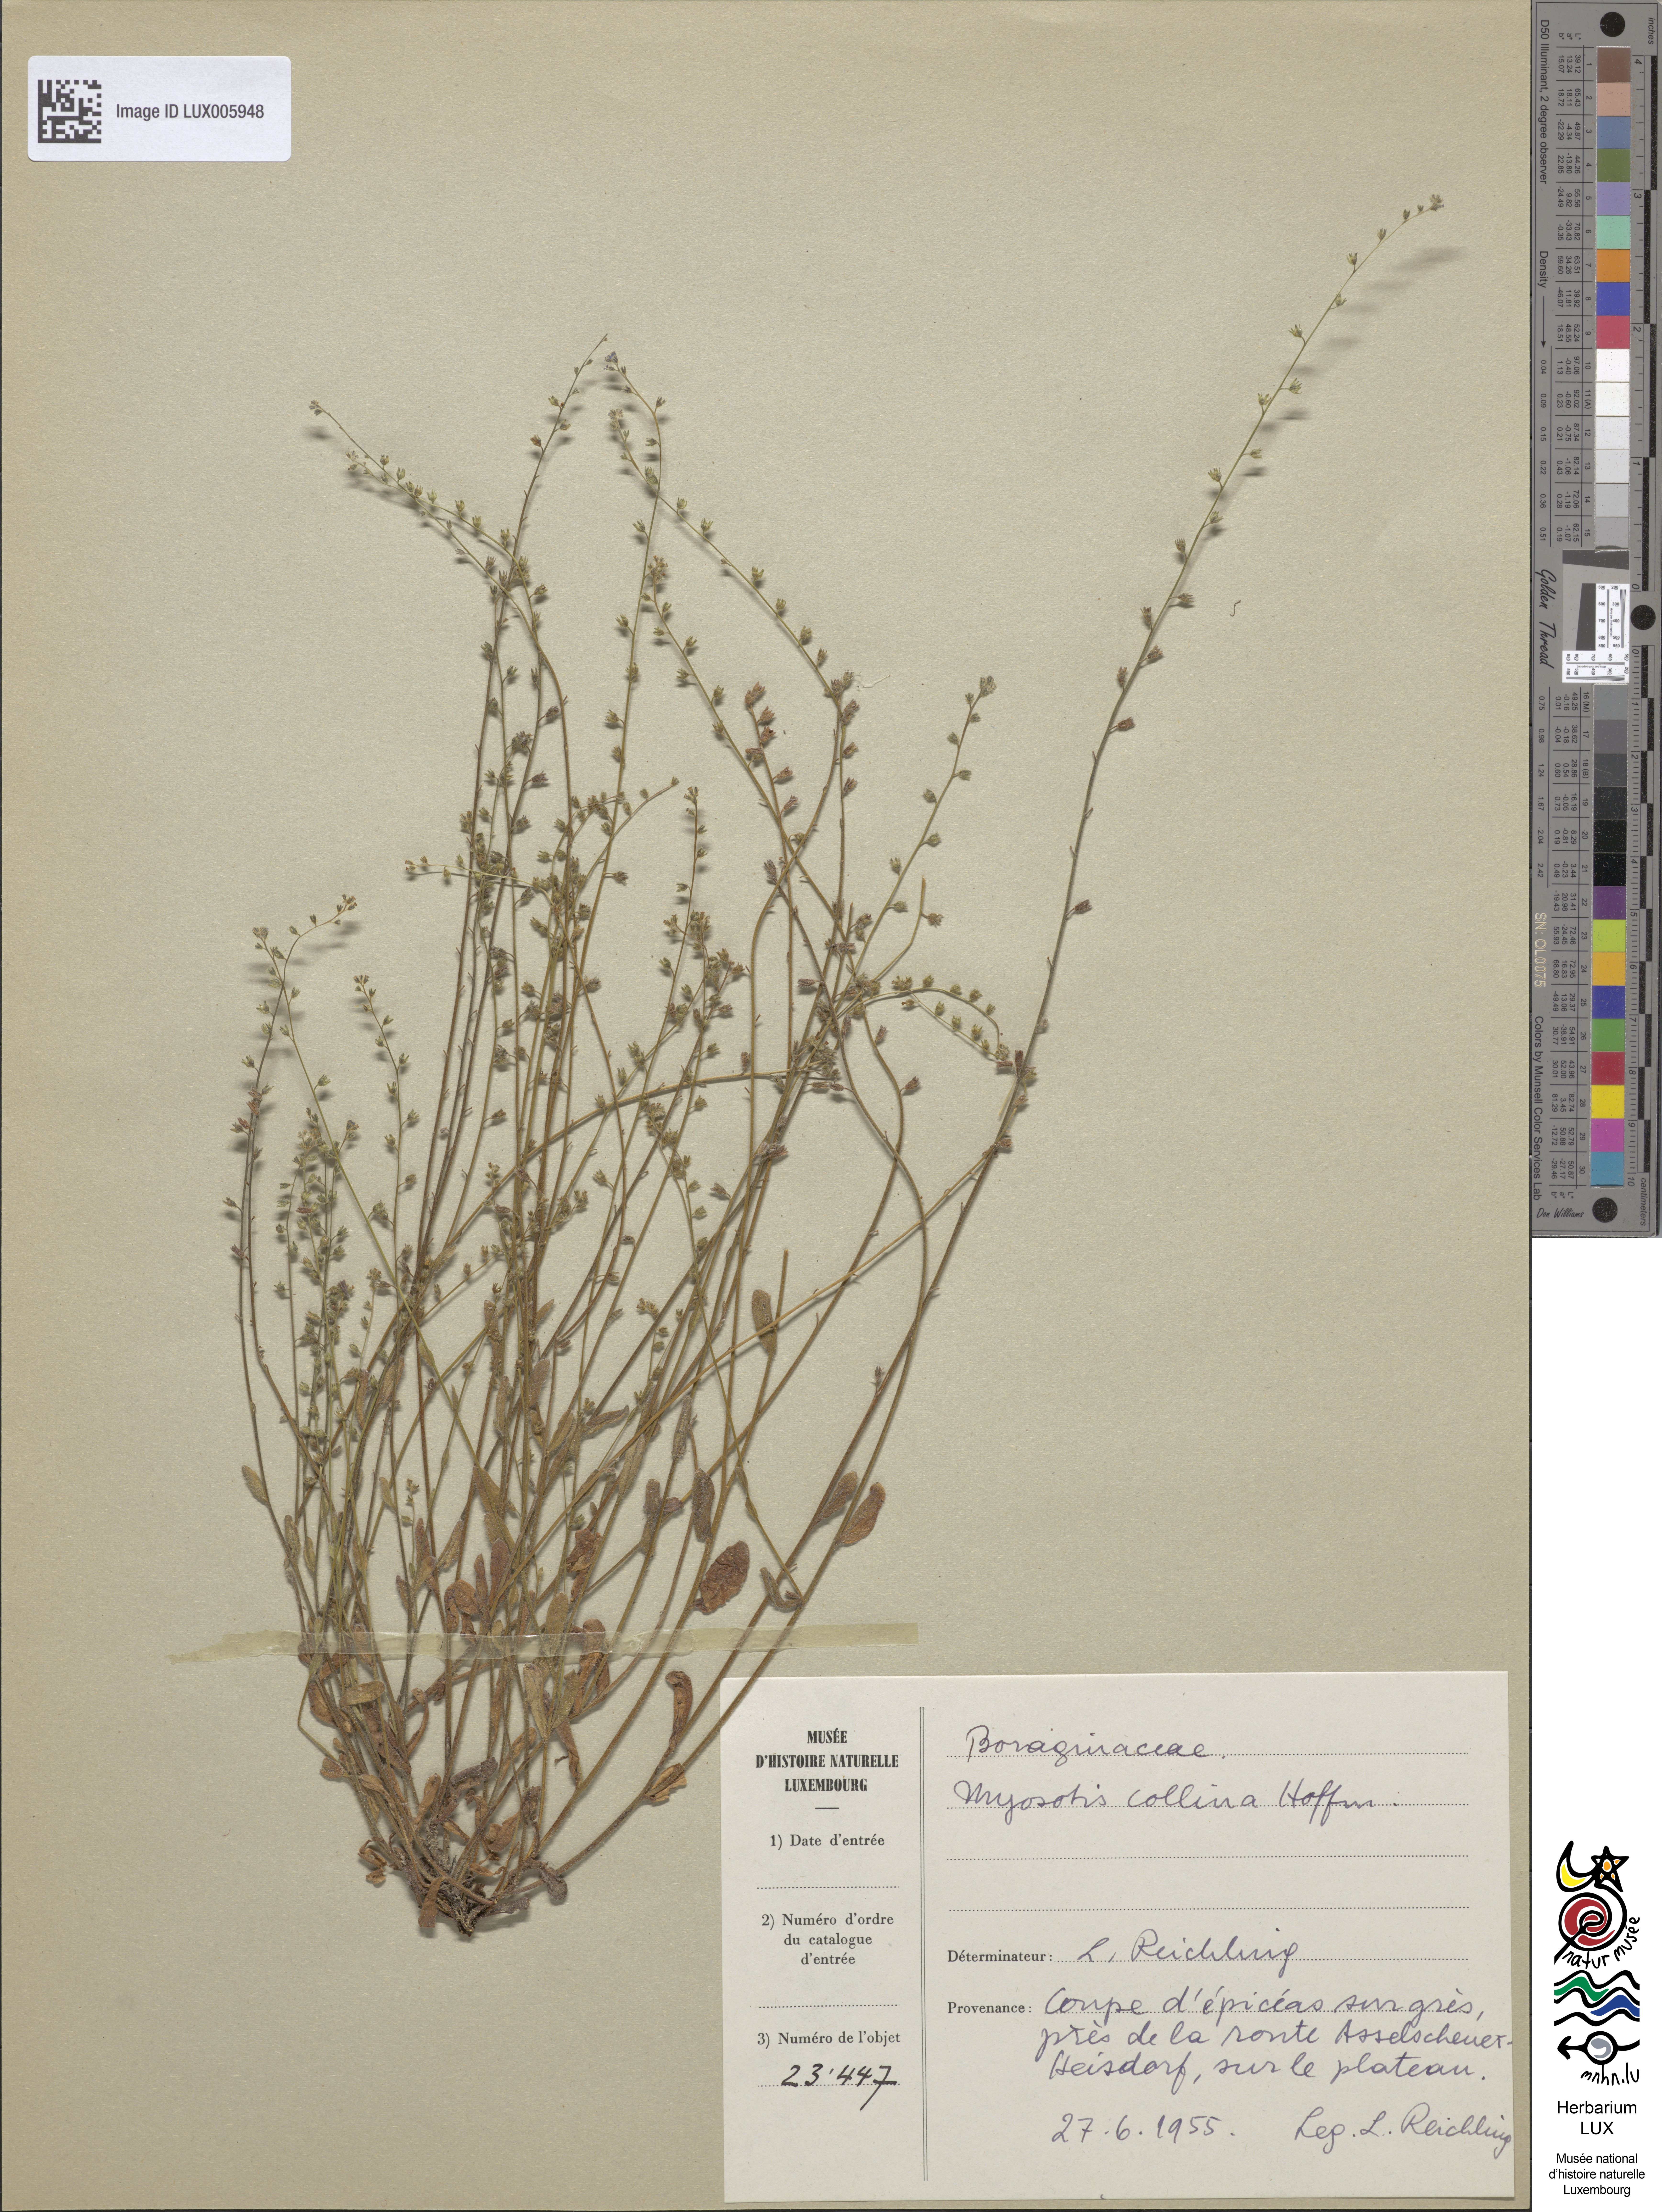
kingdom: Plantae
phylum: Tracheophyta
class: Magnoliopsida
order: Boraginales
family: Boraginaceae
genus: Myosotis
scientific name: Myosotis discolor
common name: Changing forget-me-not
